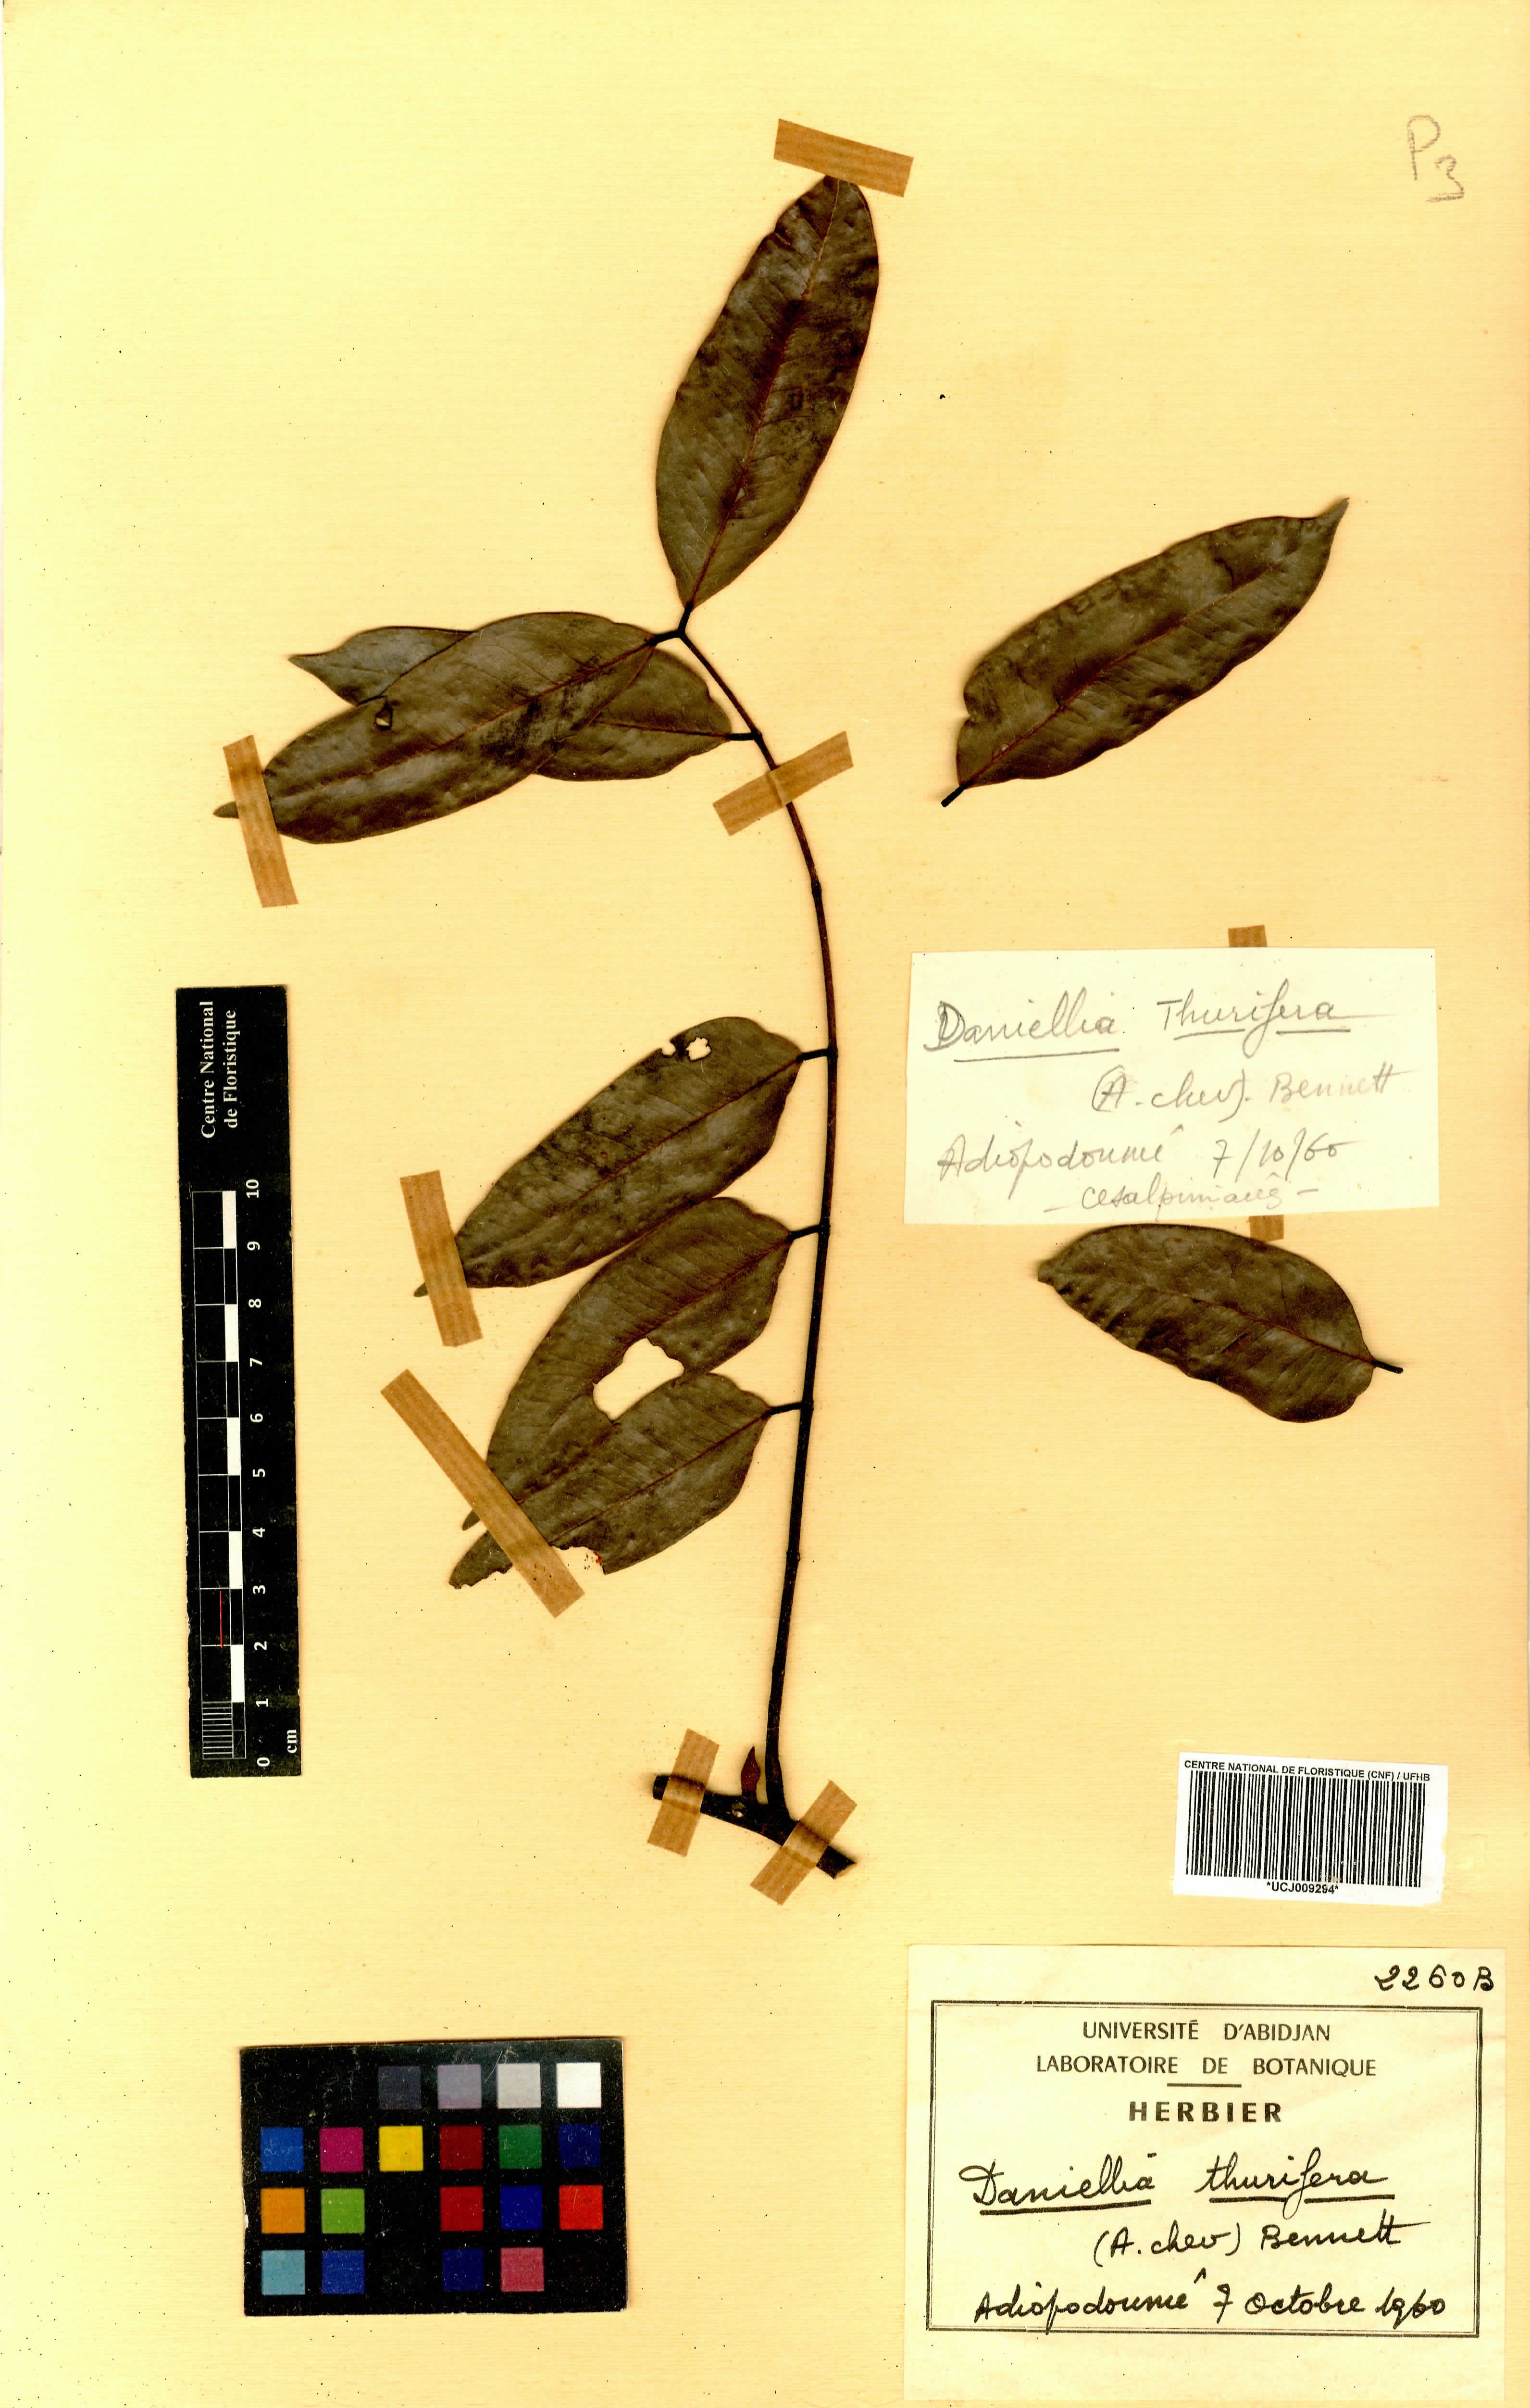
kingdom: Plantae
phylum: Tracheophyta
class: Magnoliopsida
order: Fabales
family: Fabaceae
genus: Daniellia
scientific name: Daniellia thurifera
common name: Sudan copal
